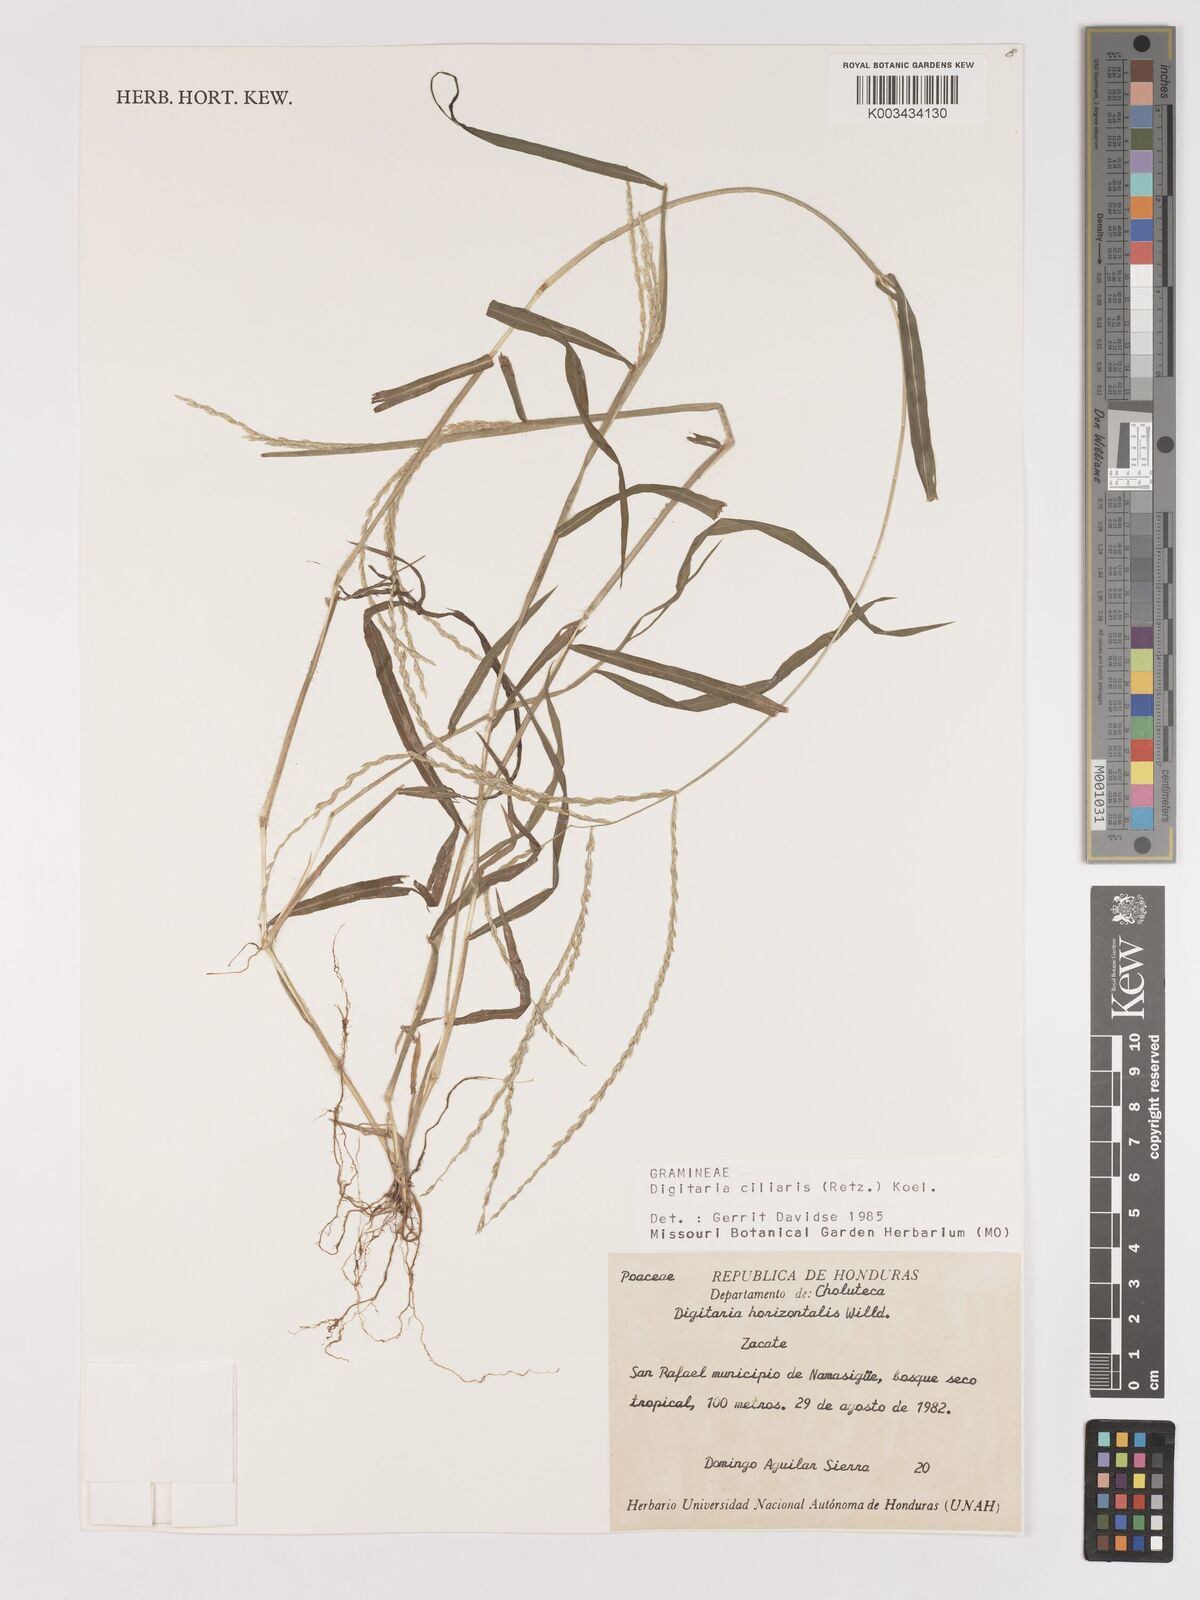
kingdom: Plantae
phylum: Tracheophyta
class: Liliopsida
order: Poales
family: Poaceae
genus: Digitaria
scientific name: Digitaria ciliaris
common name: Tropical finger-grass
